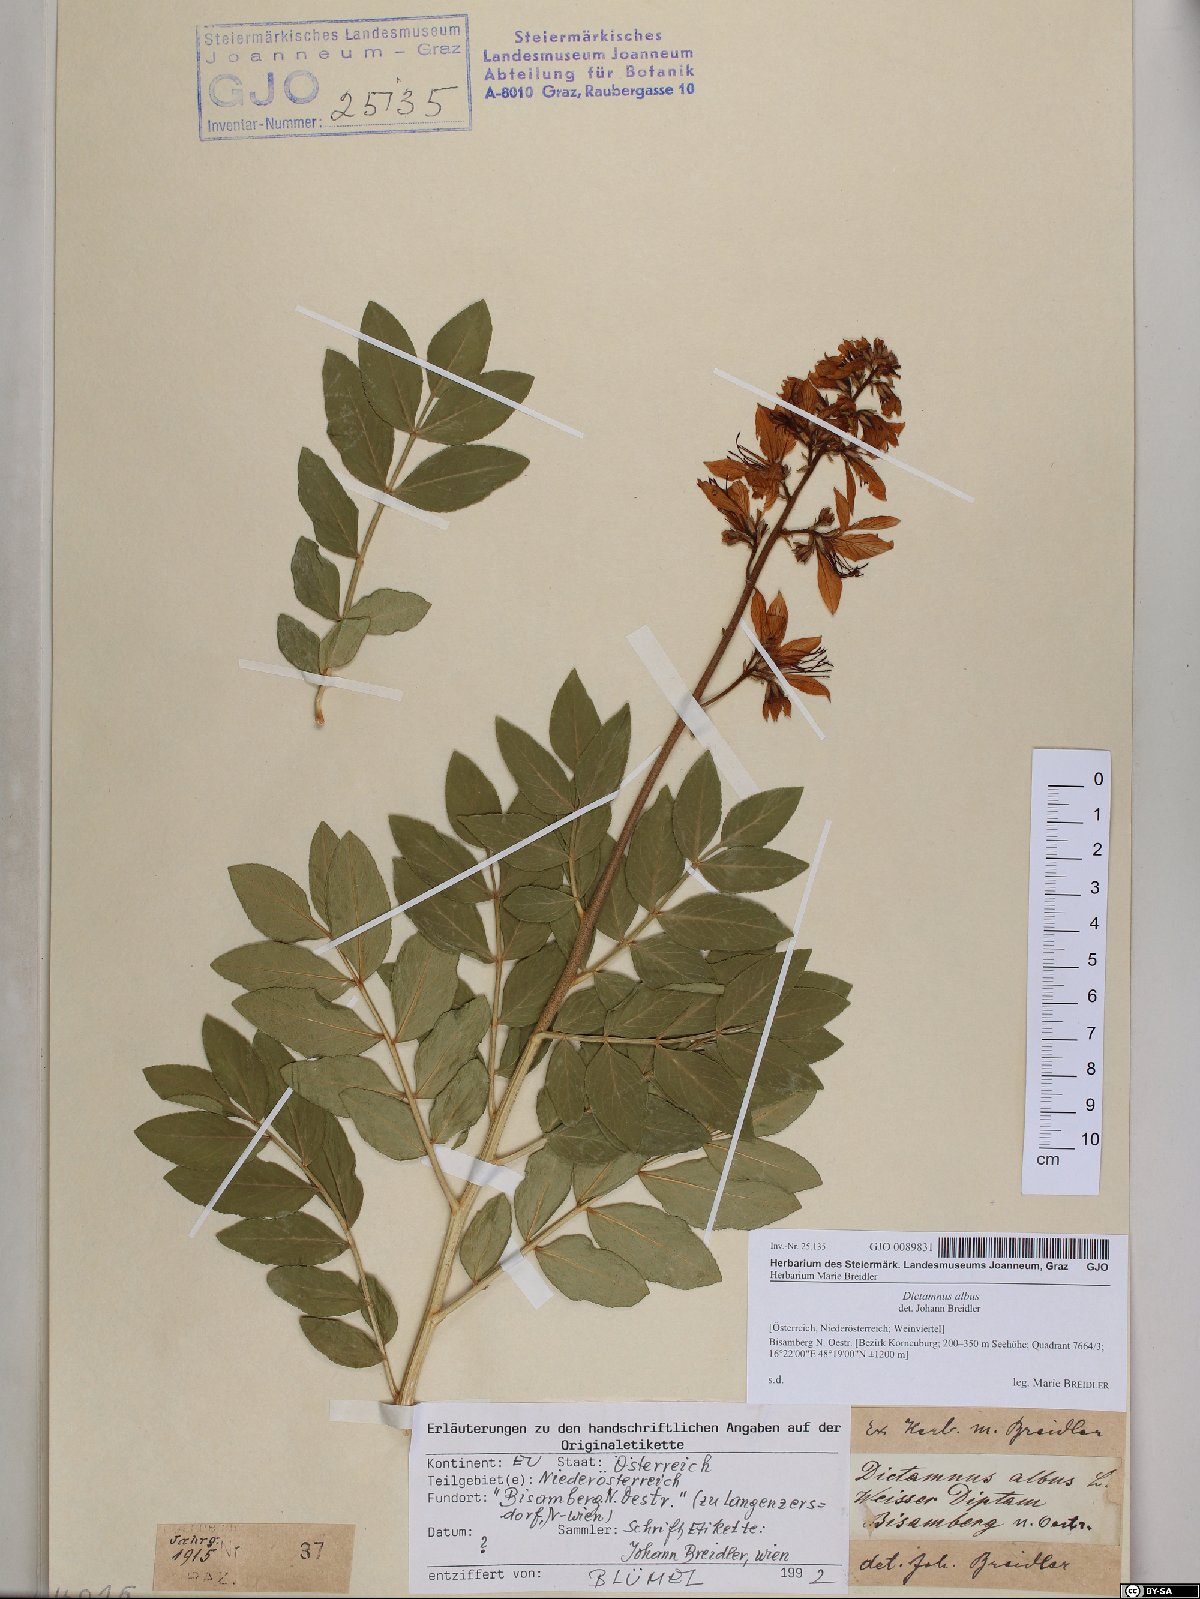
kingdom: Plantae
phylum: Tracheophyta
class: Magnoliopsida
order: Sapindales
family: Rutaceae
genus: Dictamnus
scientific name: Dictamnus albus
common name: Gasplant
